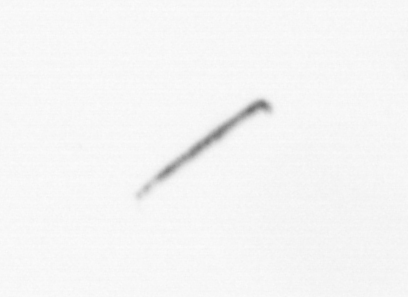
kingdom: Chromista
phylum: Ochrophyta
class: Bacillariophyceae
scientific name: Bacillariophyceae
